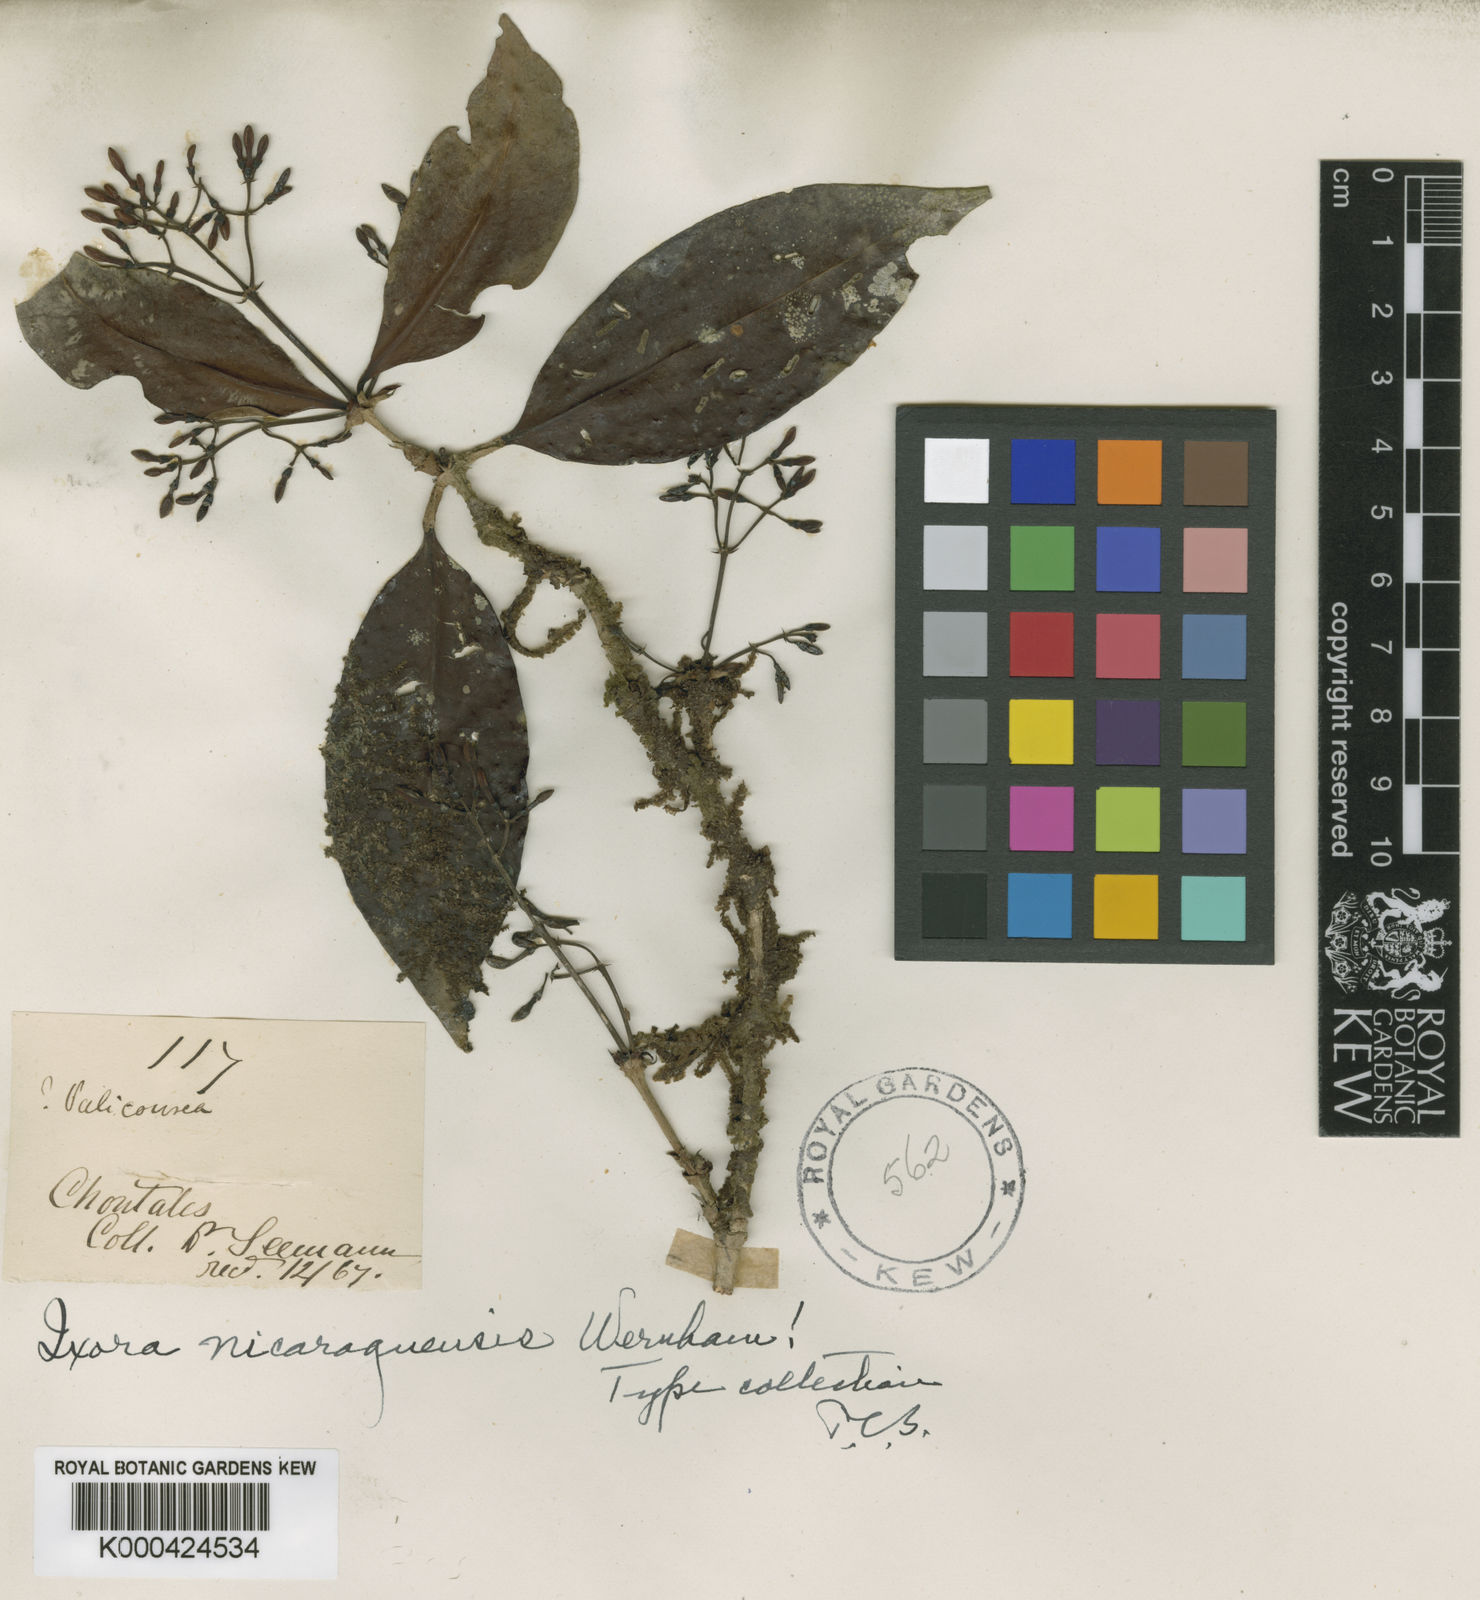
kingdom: Plantae
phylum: Tracheophyta
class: Magnoliopsida
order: Gentianales
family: Rubiaceae
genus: Ixora
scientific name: Ixora nicaraguensis
